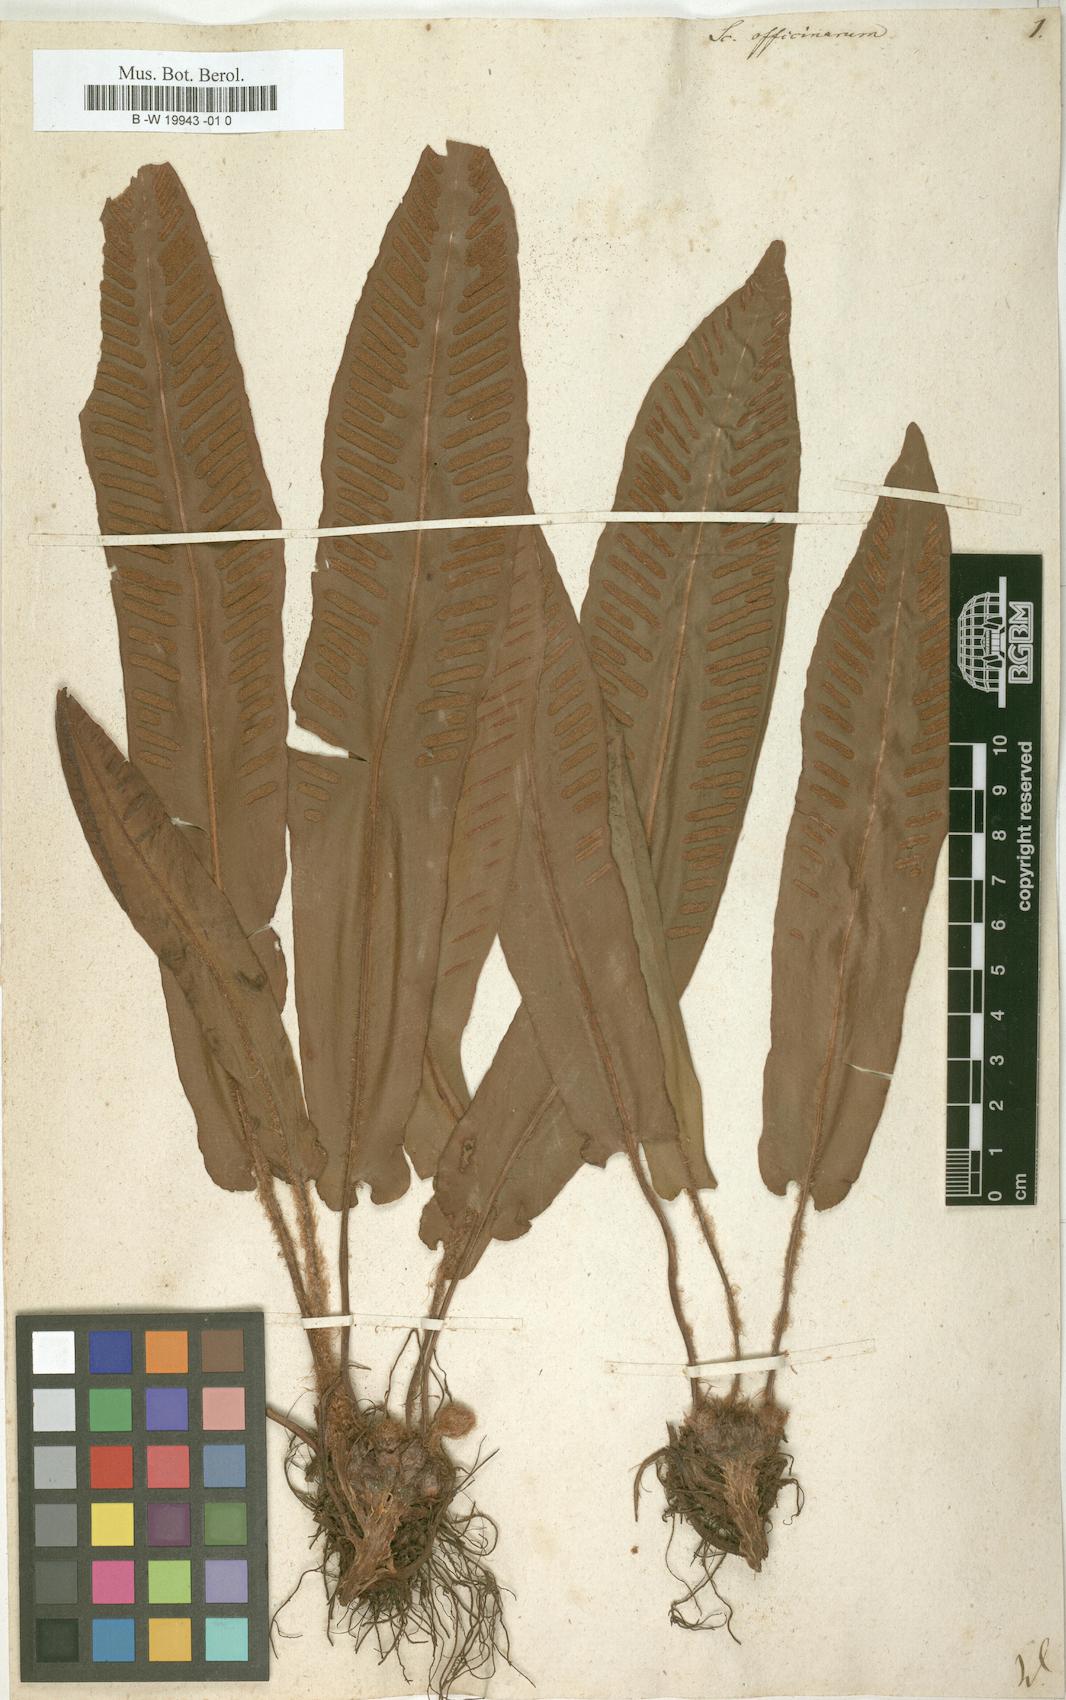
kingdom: Plantae
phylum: Tracheophyta
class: Polypodiopsida
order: Polypodiales
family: Aspleniaceae
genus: Asplenium
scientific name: Asplenium scolopendrium
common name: Hart's-tongue fern
